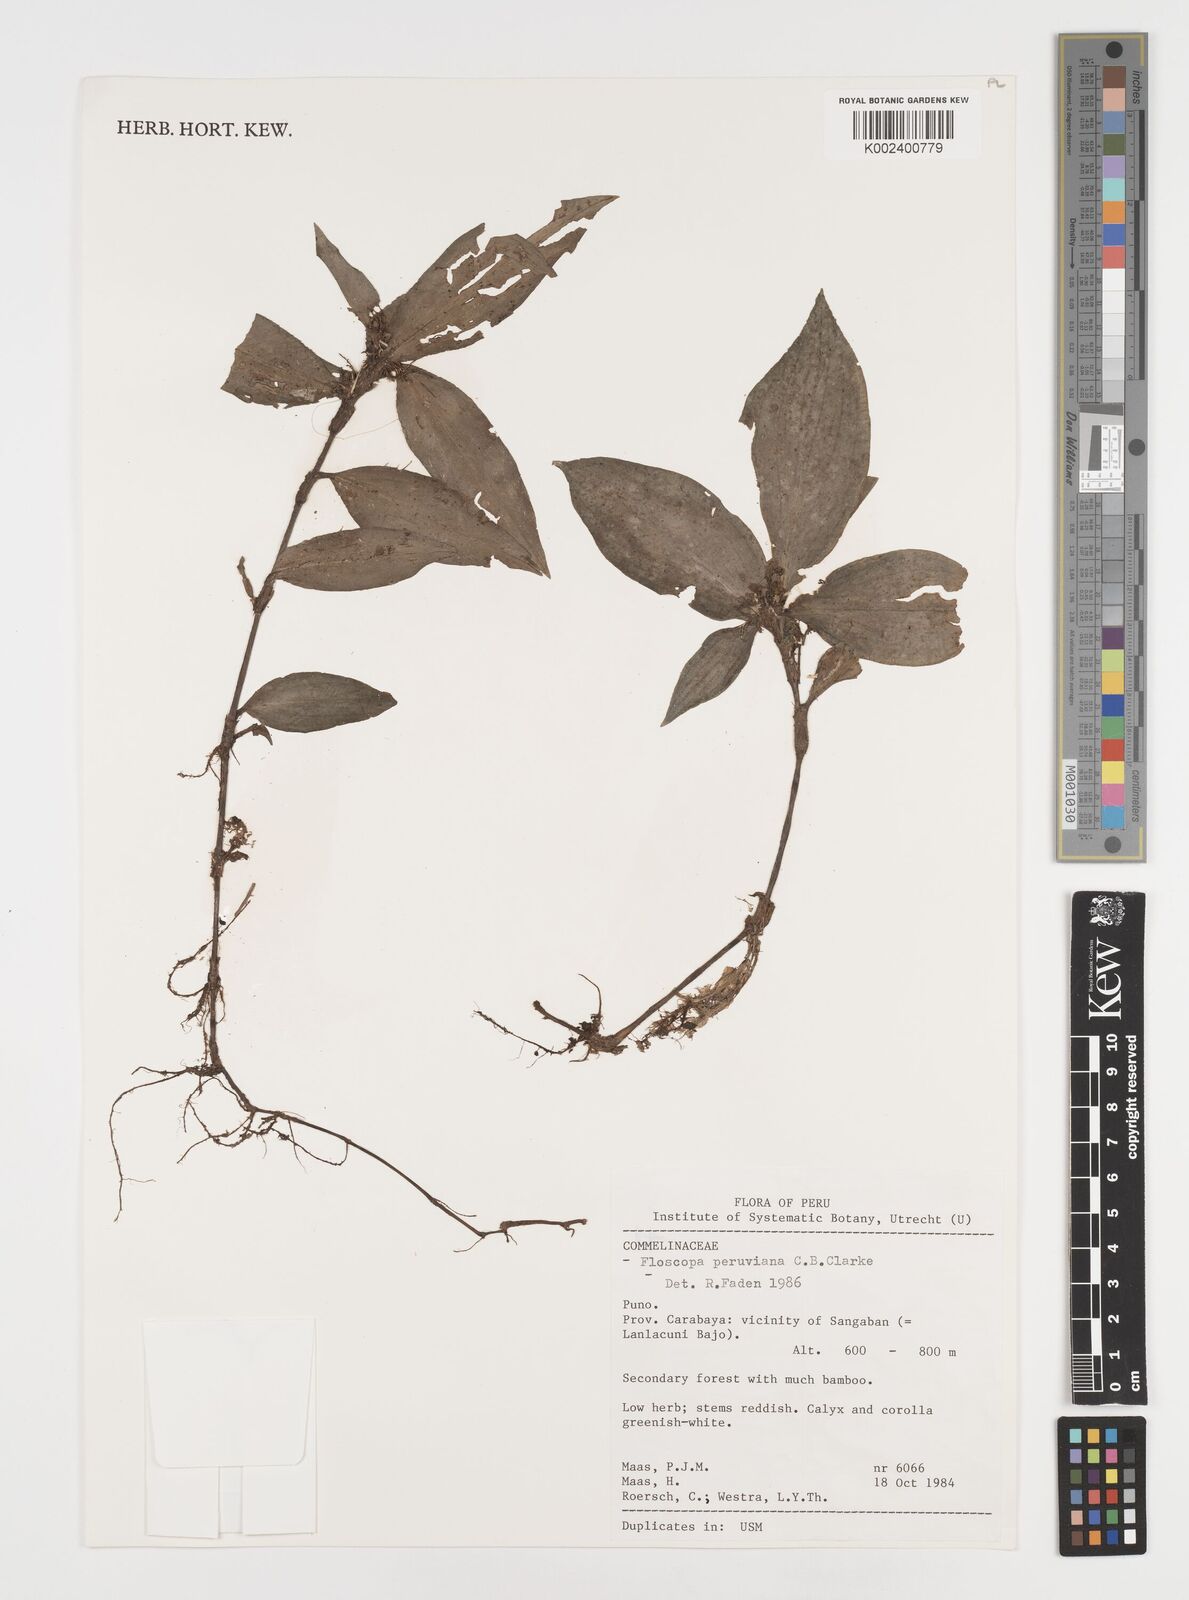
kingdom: Plantae
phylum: Tracheophyta
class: Liliopsida
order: Commelinales
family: Commelinaceae
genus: Floscopa
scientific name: Floscopa peruviana
